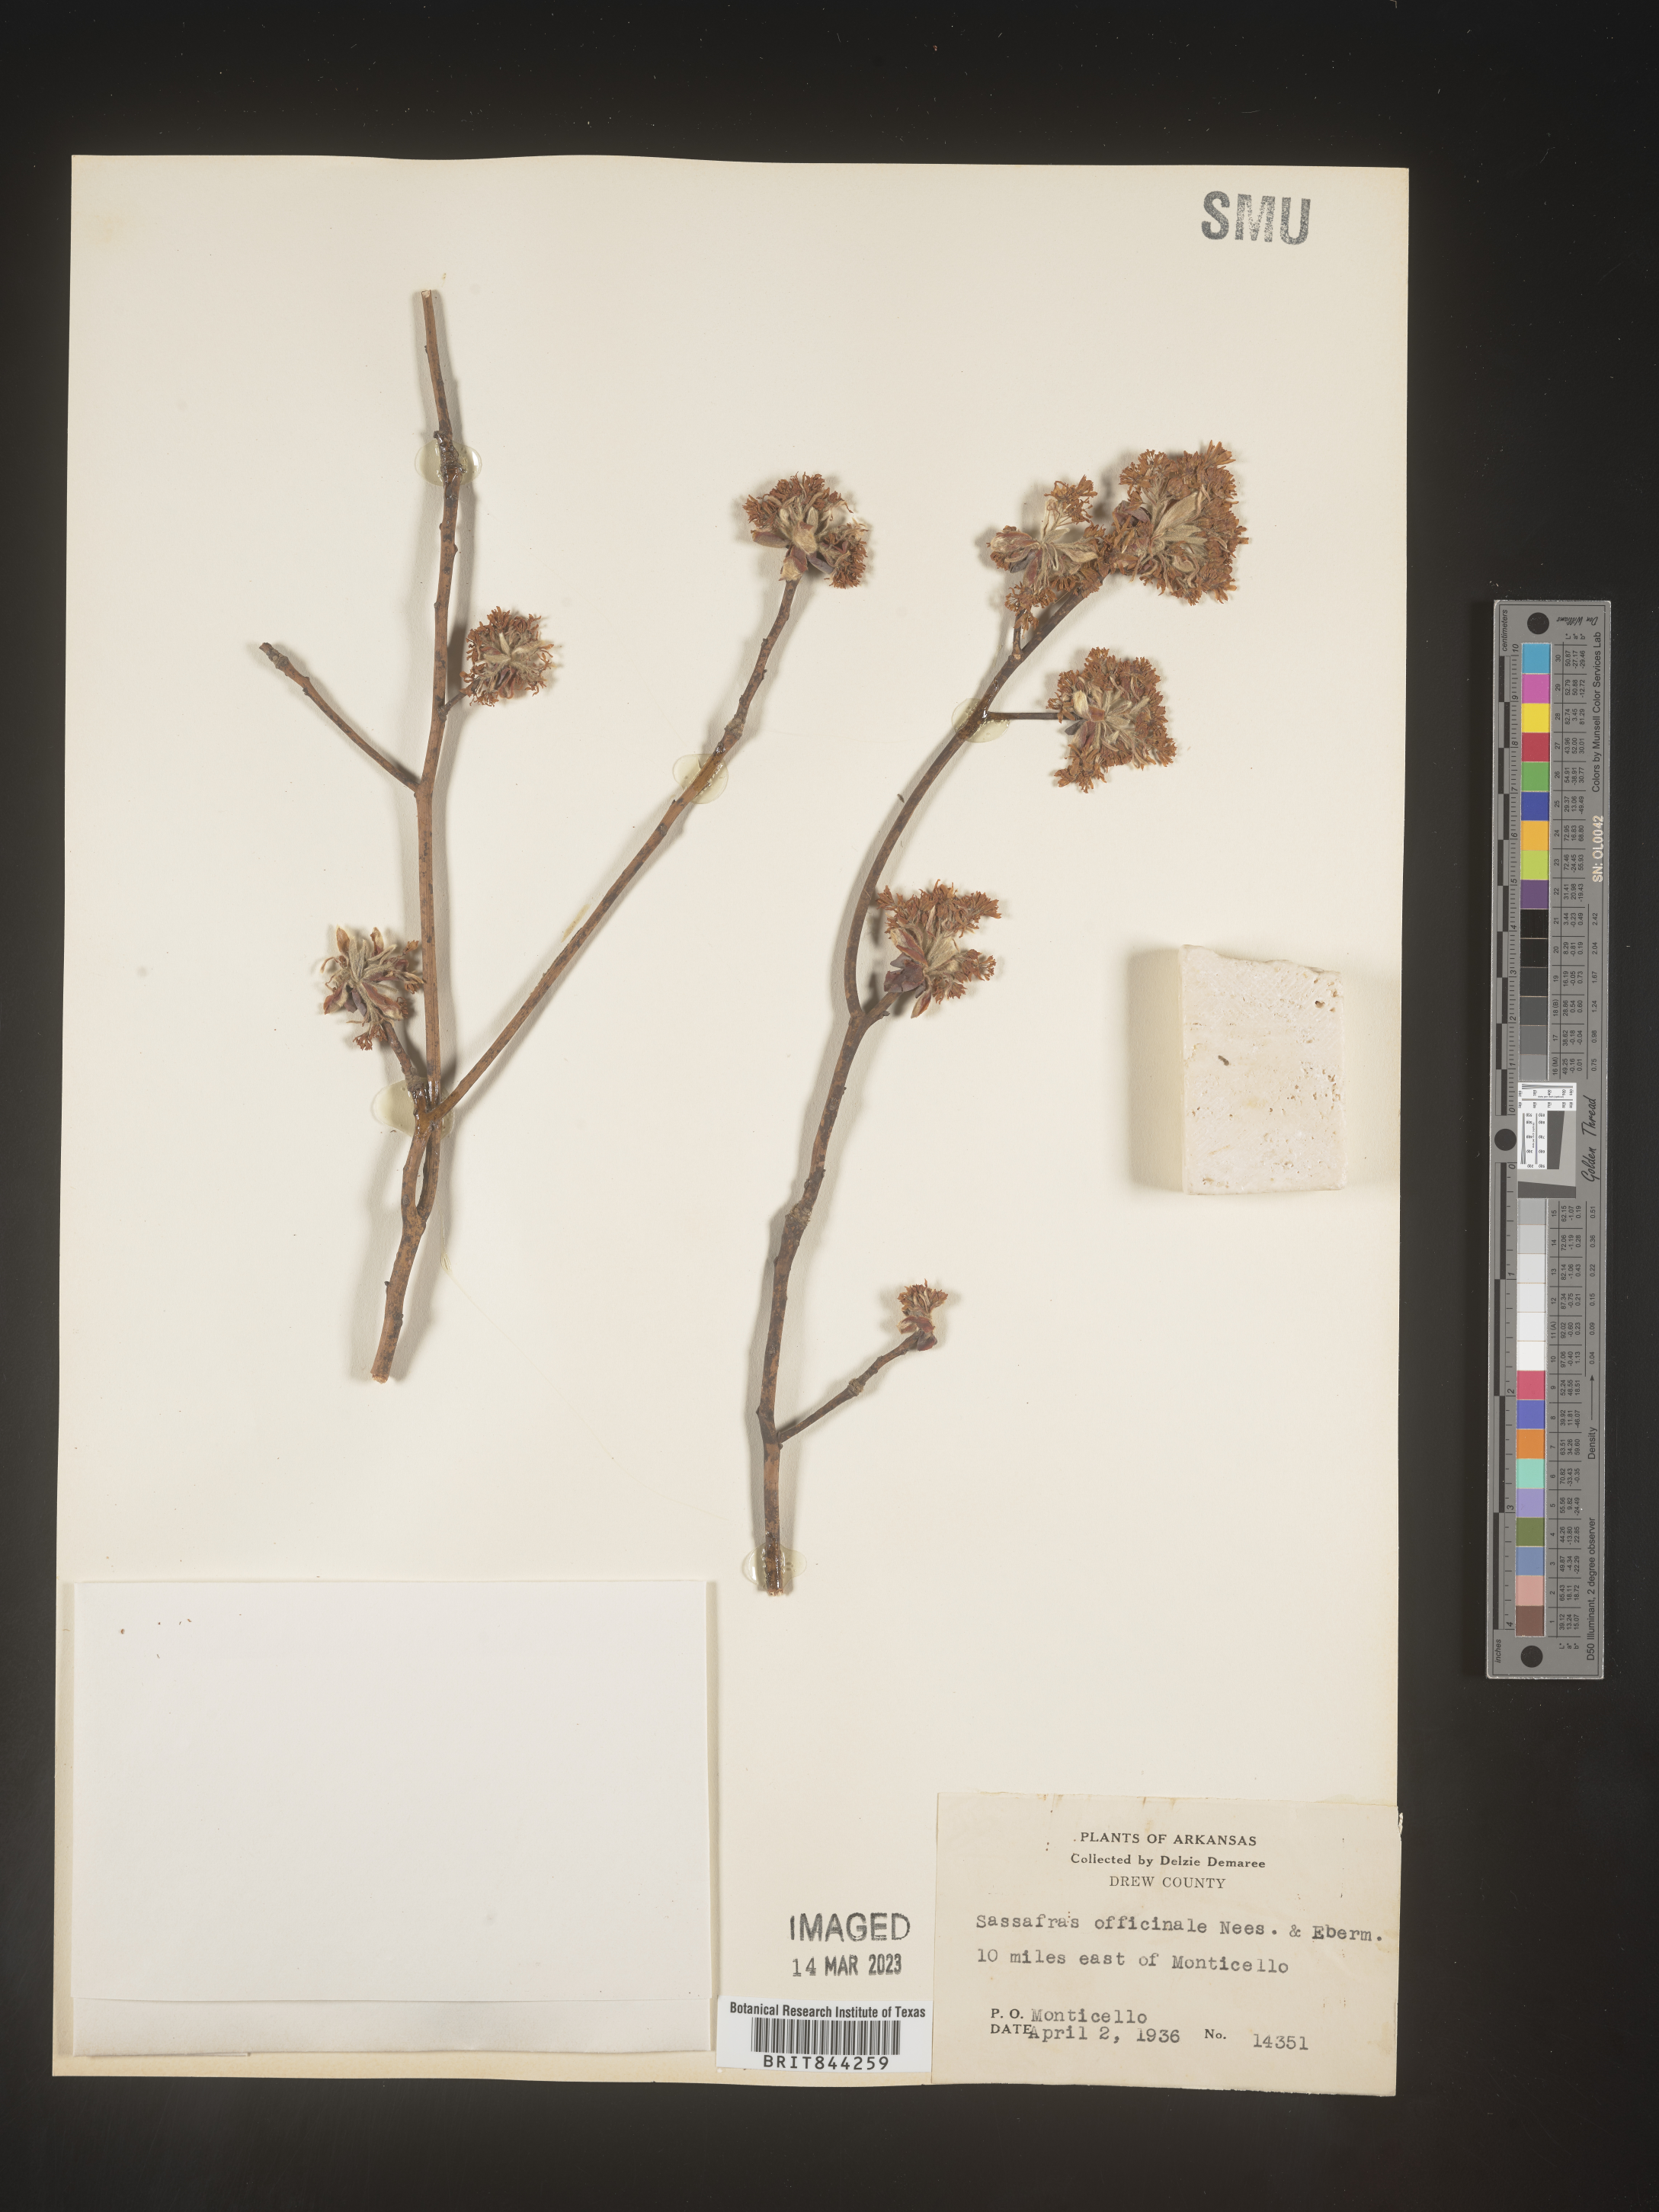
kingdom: Plantae
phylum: Tracheophyta
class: Magnoliopsida
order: Laurales
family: Lauraceae
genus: Sassafras
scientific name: Sassafras albidum
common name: Sassafras
